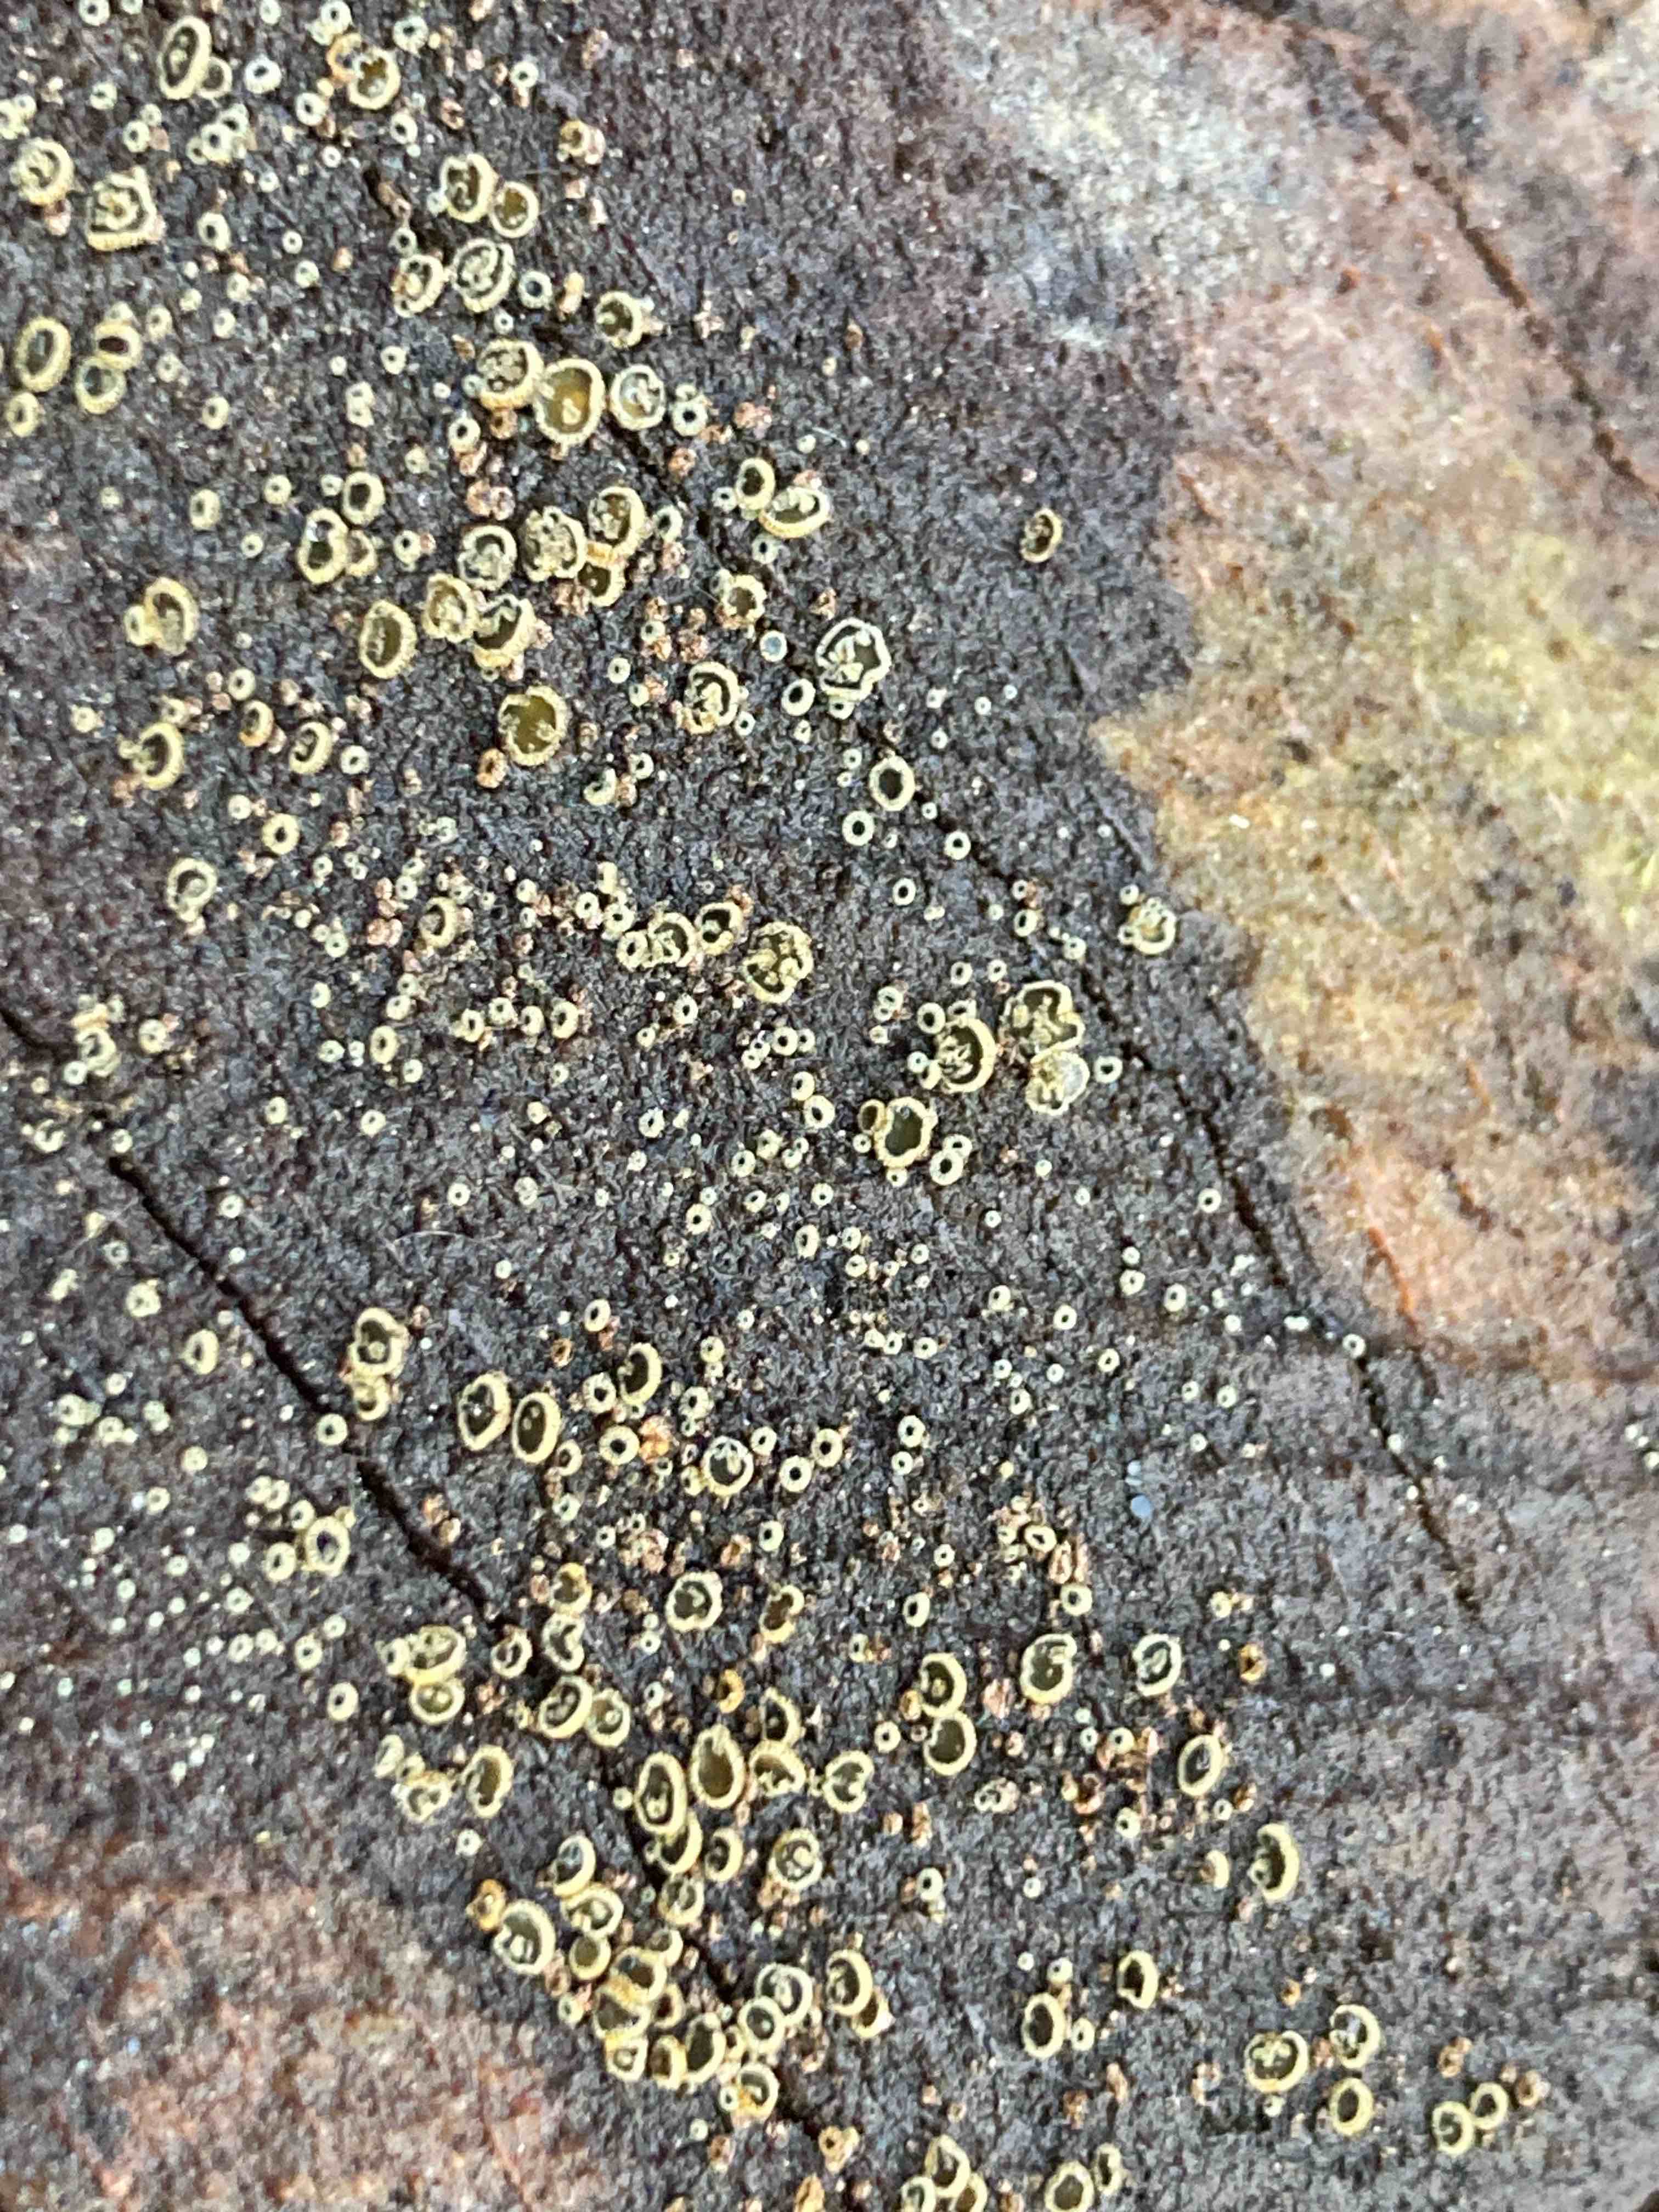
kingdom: Fungi
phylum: Ascomycota
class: Leotiomycetes
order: Helotiales
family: Lachnaceae
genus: Neodasyscypha
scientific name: Neodasyscypha cerina
